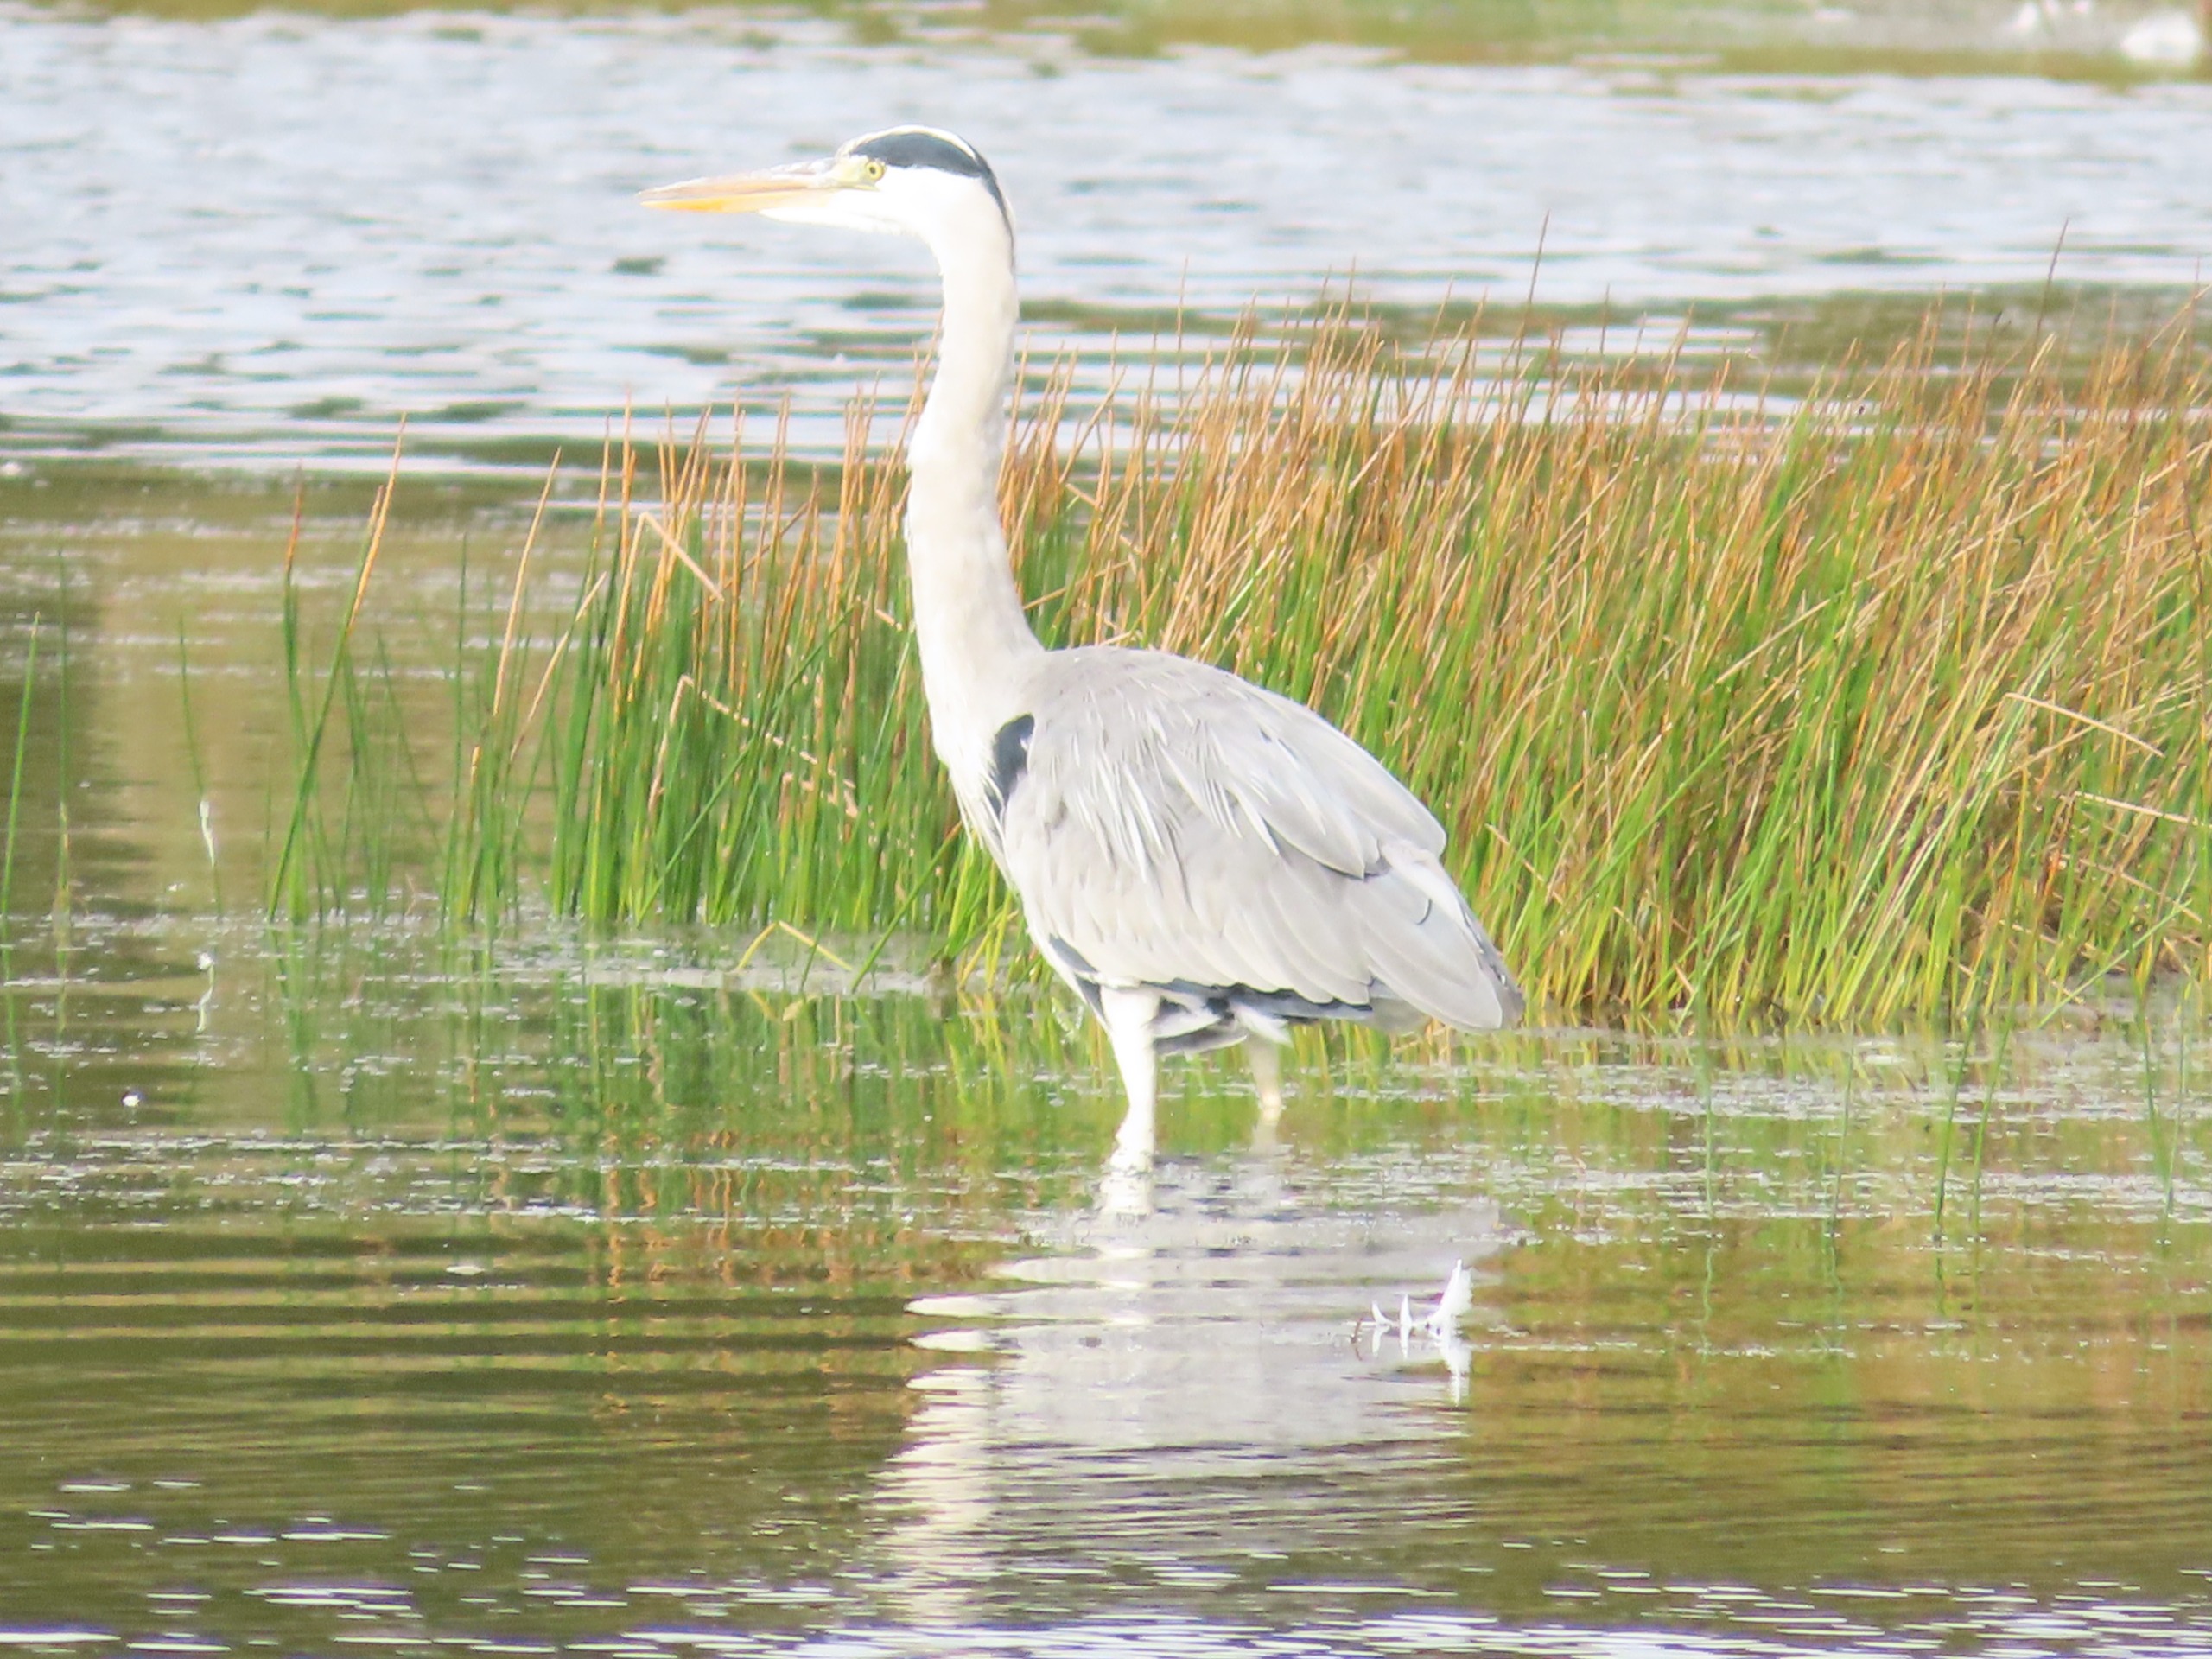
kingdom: Animalia
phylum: Chordata
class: Aves
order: Pelecaniformes
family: Ardeidae
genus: Ardea
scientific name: Ardea cinerea
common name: Fiskehejre
